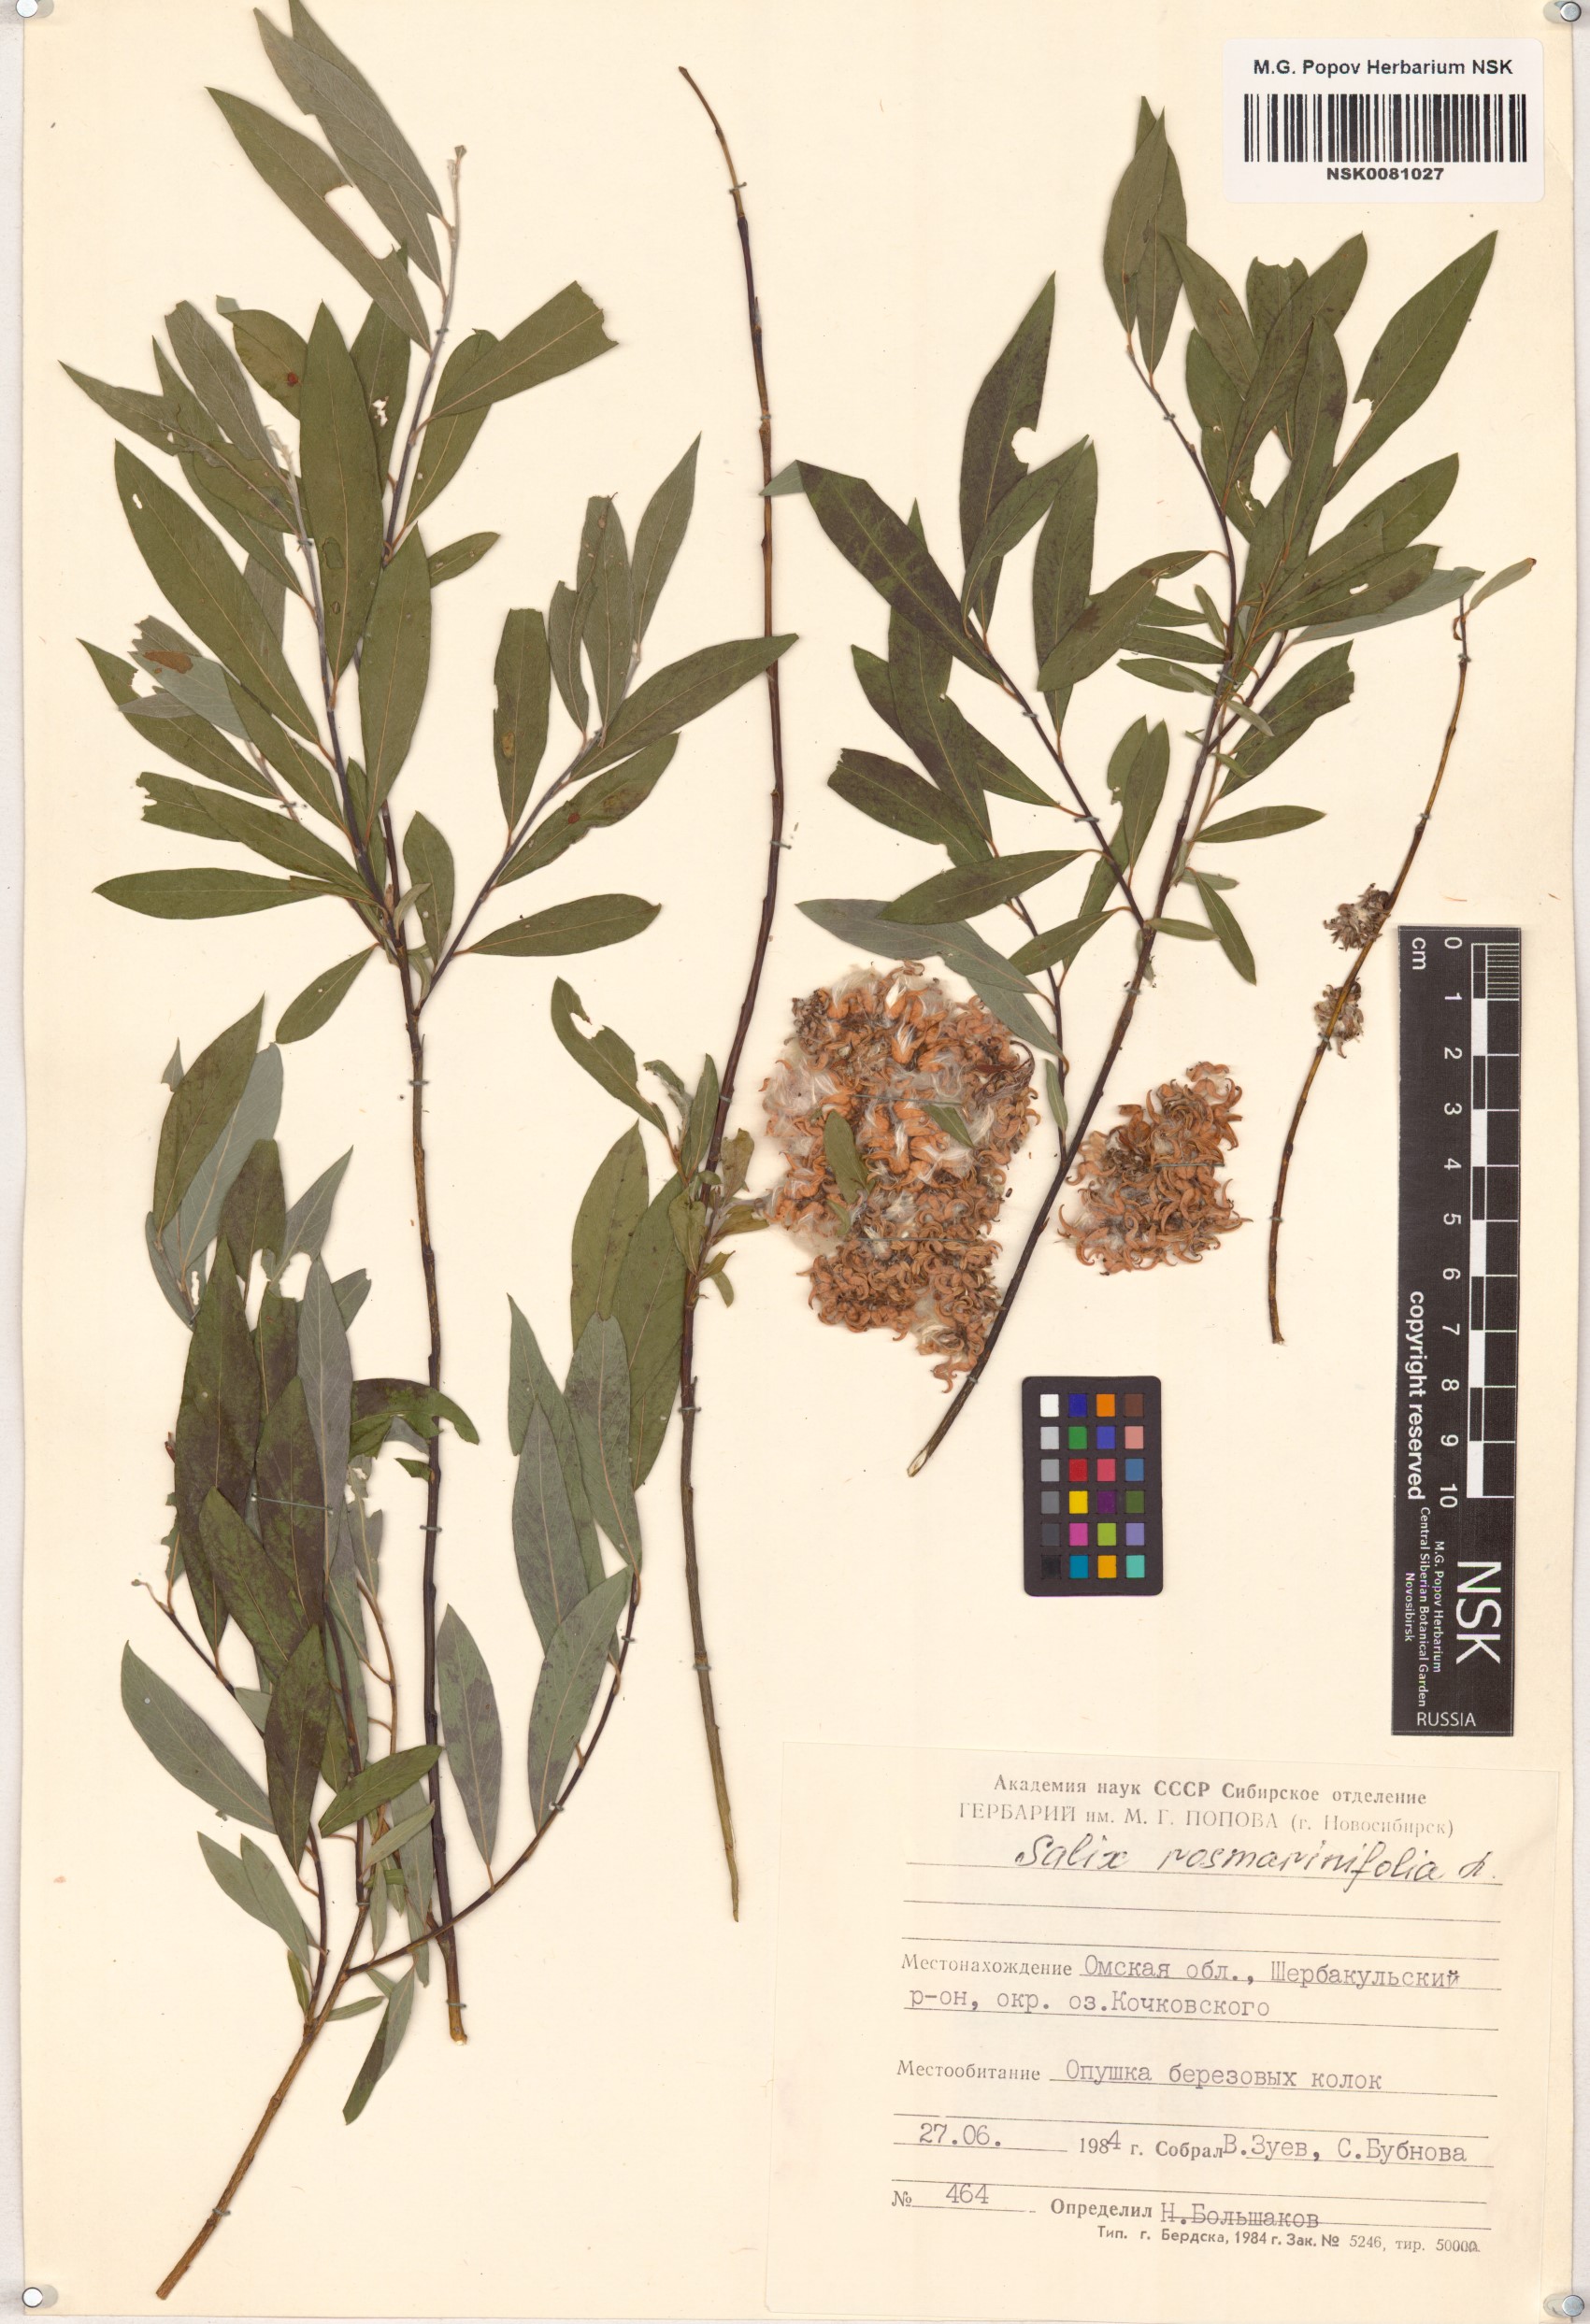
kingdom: Plantae
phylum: Tracheophyta
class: Magnoliopsida
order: Malpighiales
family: Salicaceae
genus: Salix
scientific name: Salix rosmarinifolia
